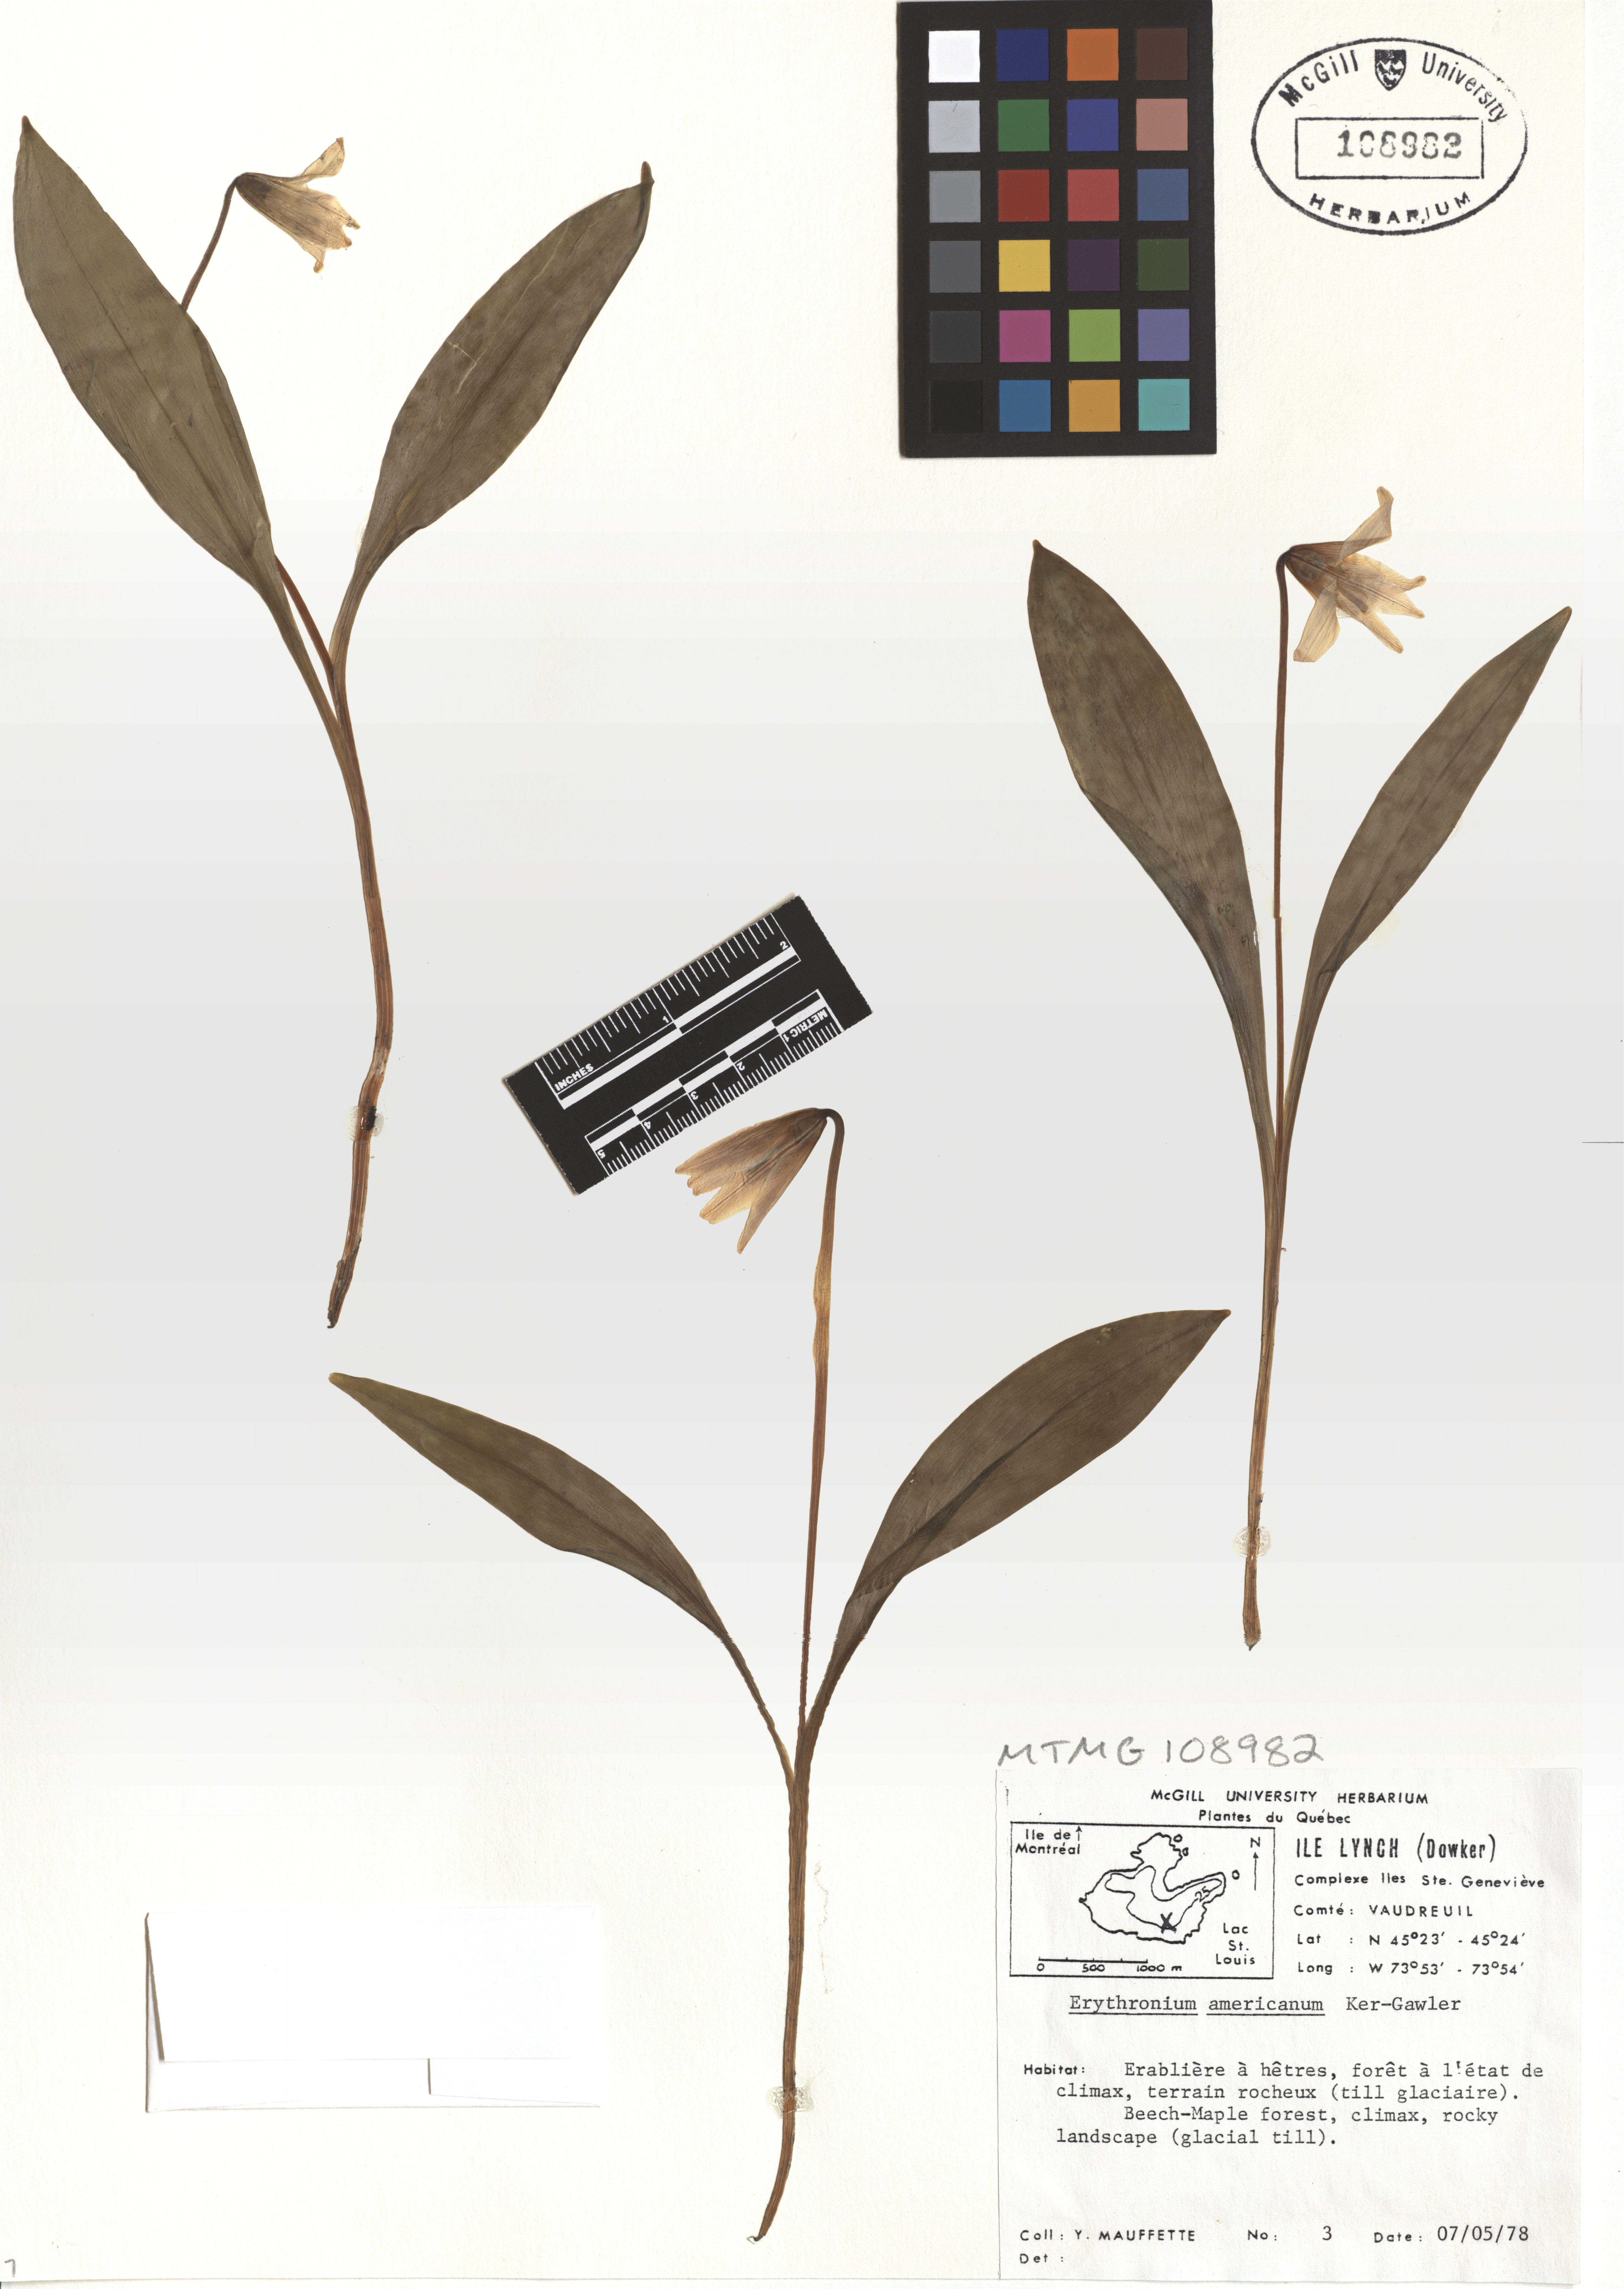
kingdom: Plantae
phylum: Tracheophyta
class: Liliopsida
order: Liliales
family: Liliaceae
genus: Erythronium
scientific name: Erythronium americanum
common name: Yellow adder's-tongue
